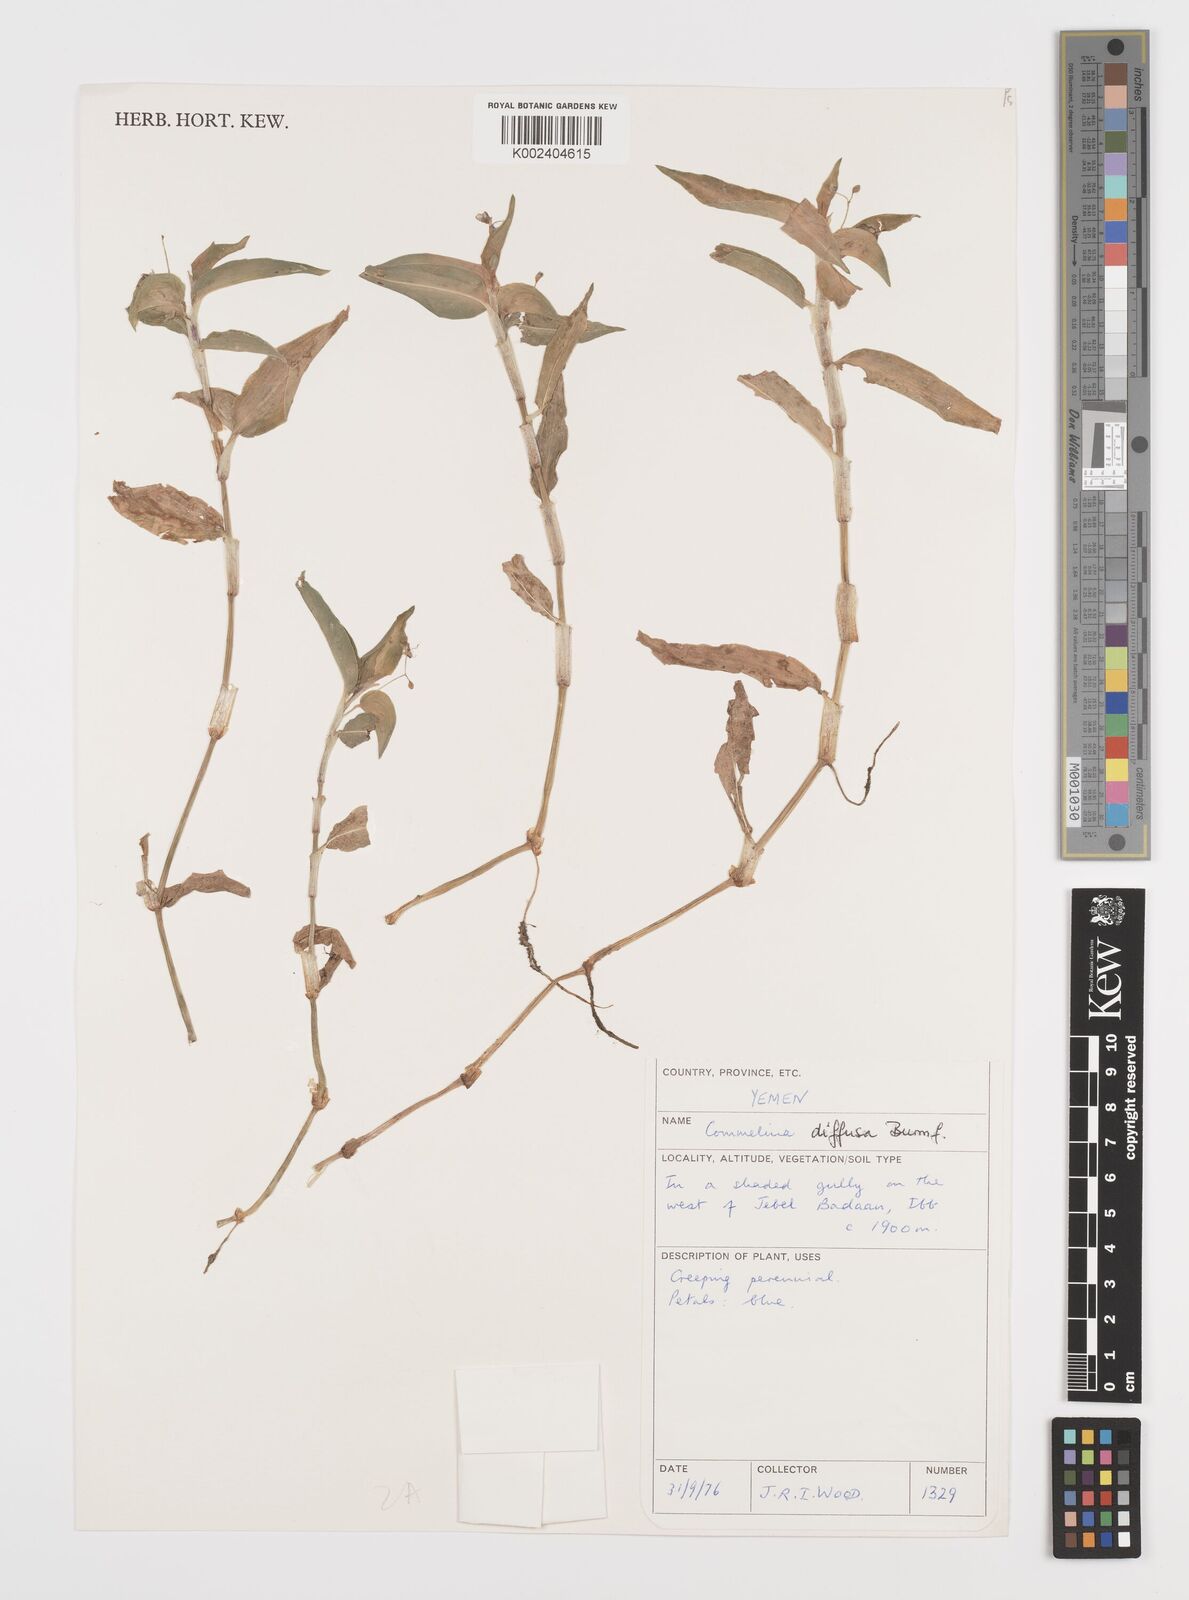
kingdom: Plantae
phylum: Tracheophyta
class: Liliopsida
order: Commelinales
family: Commelinaceae
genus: Commelina
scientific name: Commelina diffusa
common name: Climbing dayflower
